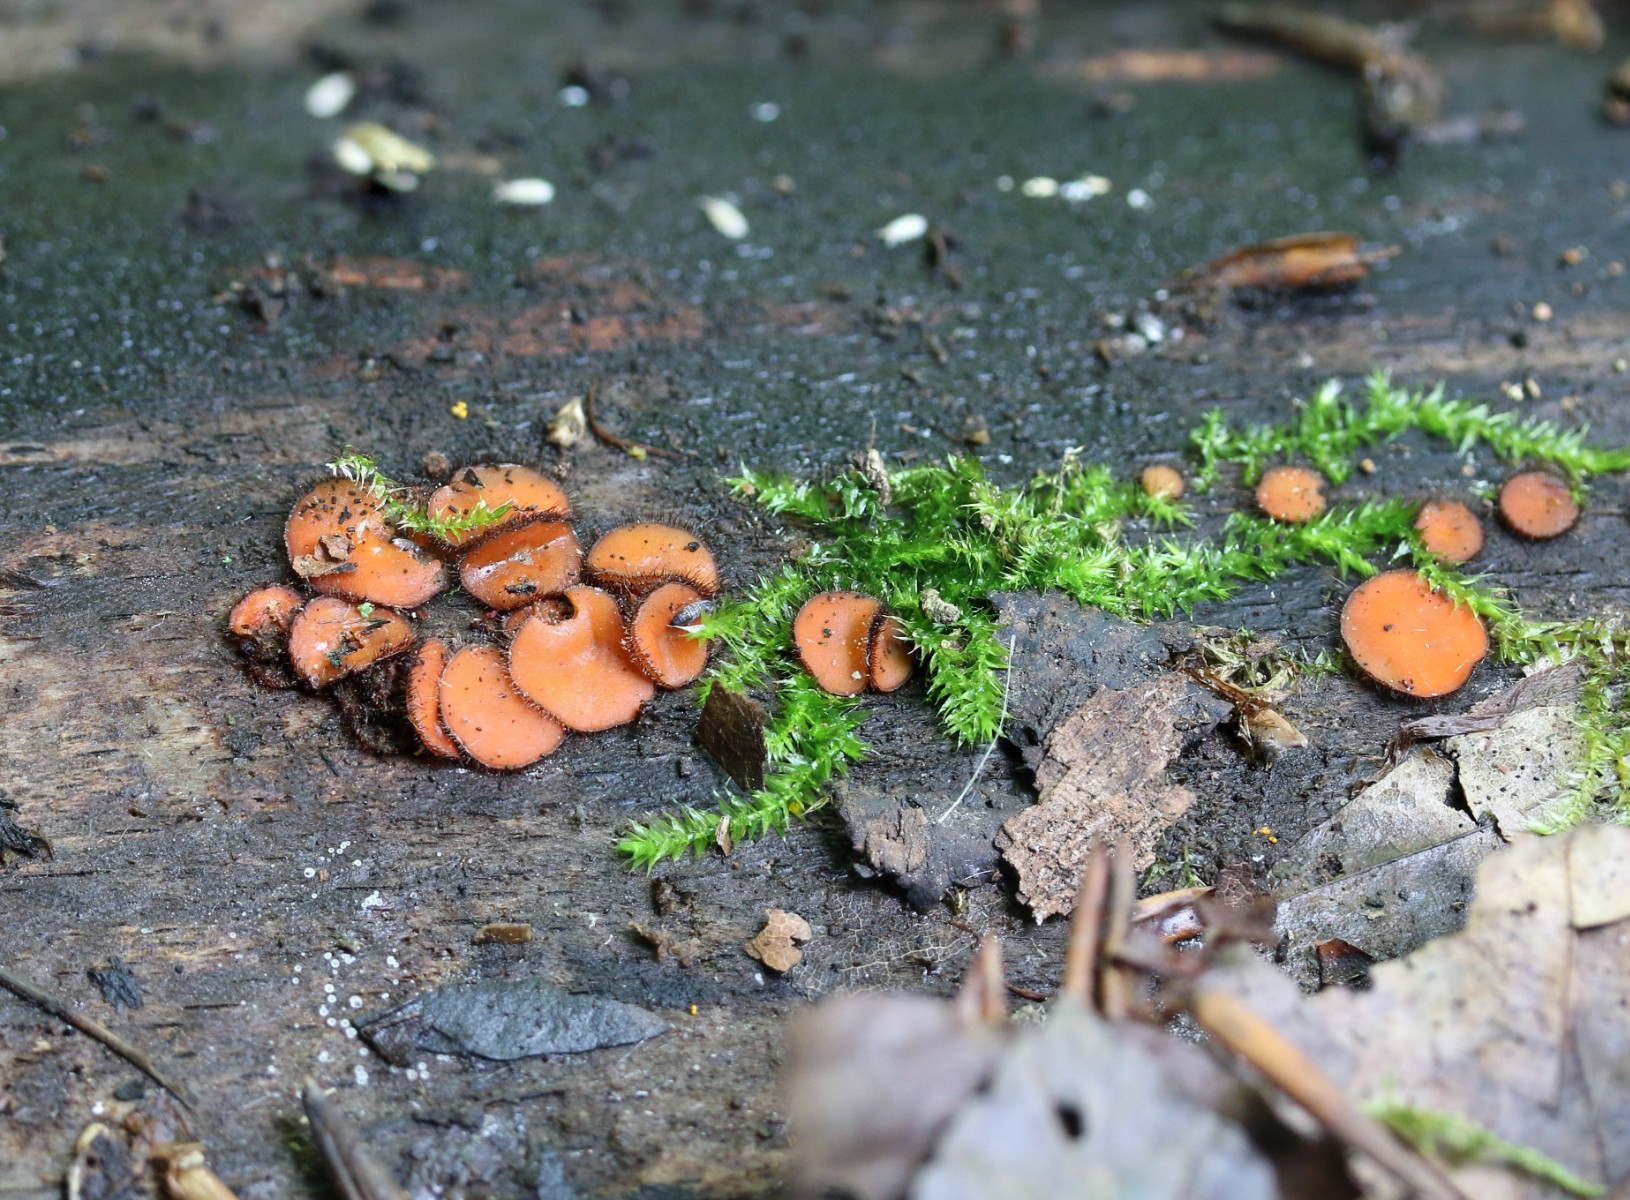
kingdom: Fungi
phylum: Ascomycota
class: Pezizomycetes
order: Pezizales
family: Pyronemataceae
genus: Scutellinia
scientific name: Scutellinia scutellata
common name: frynset skjoldbæger
